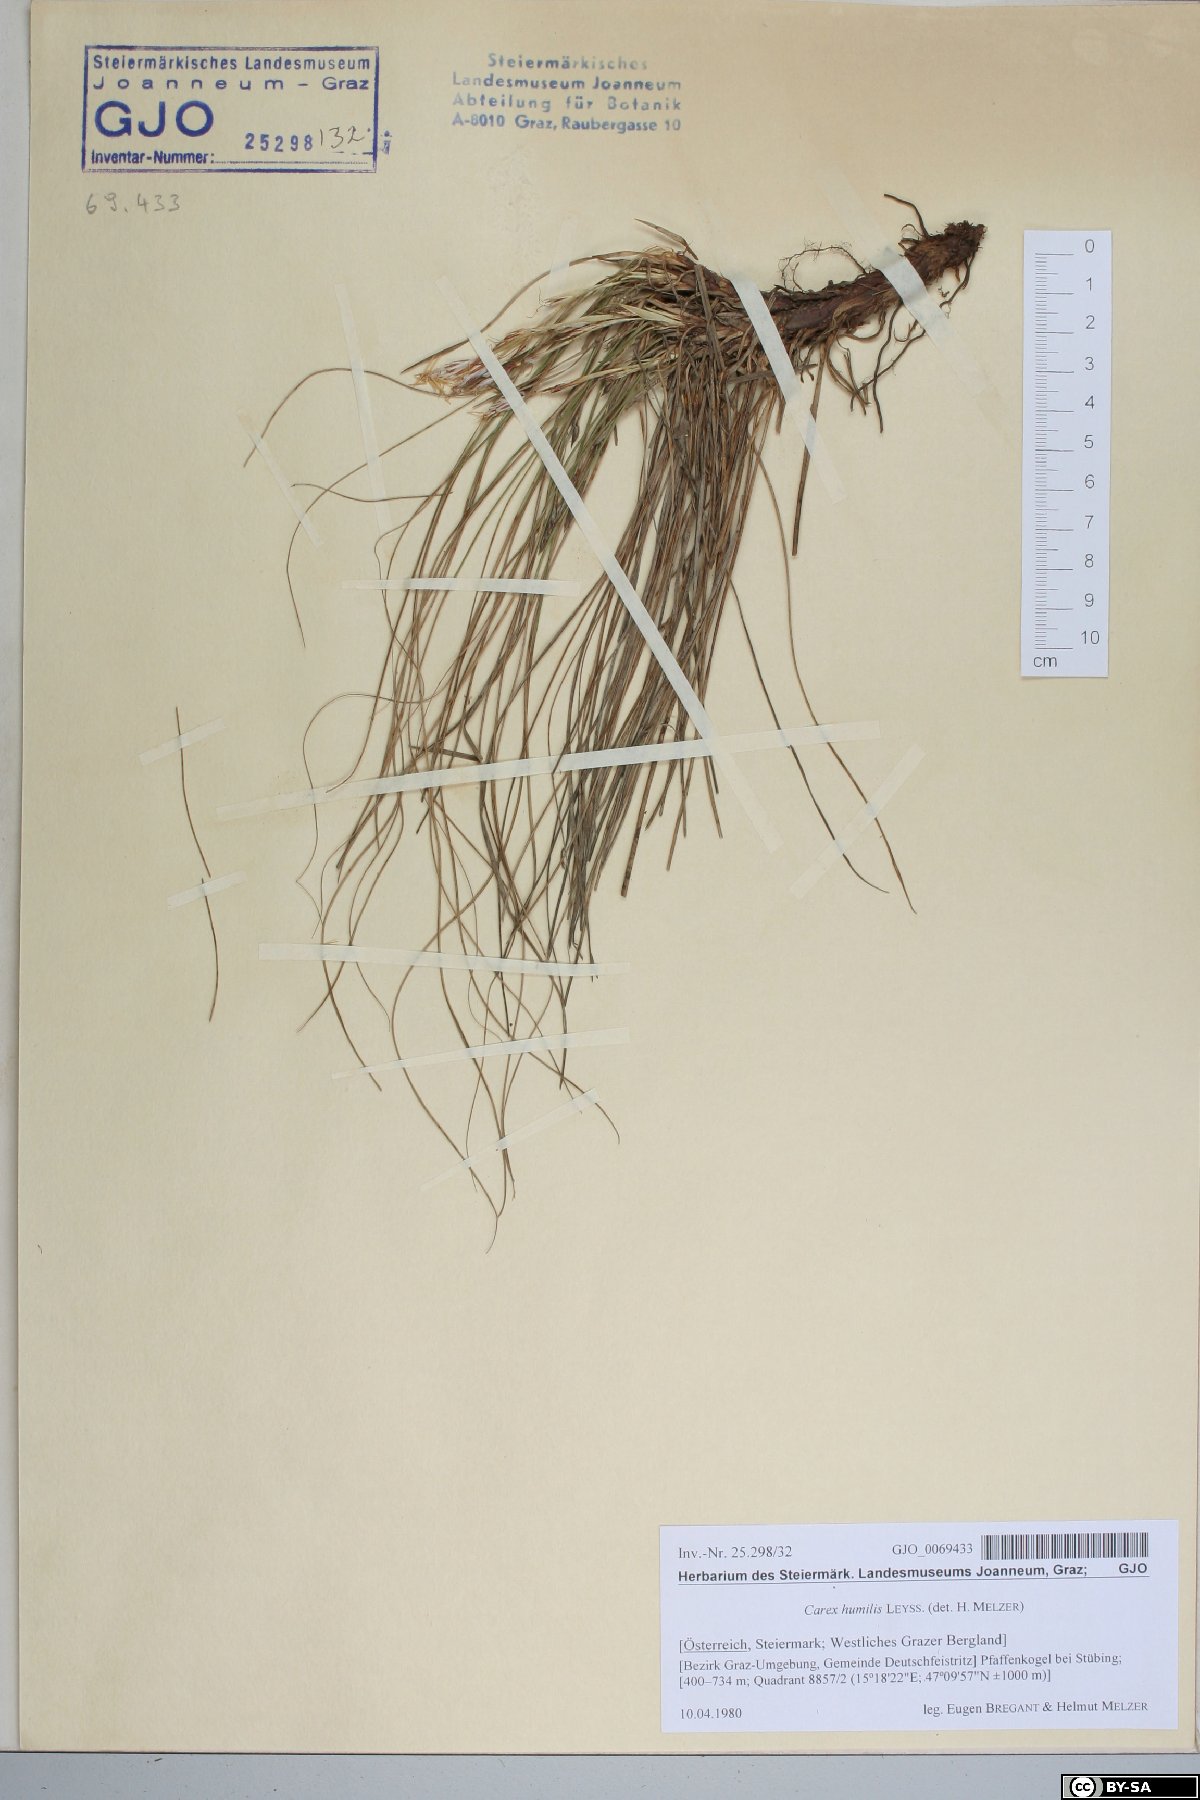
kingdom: Plantae
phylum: Tracheophyta
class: Liliopsida
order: Poales
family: Cyperaceae
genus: Carex
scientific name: Carex humilis
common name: Dwarf sedge
